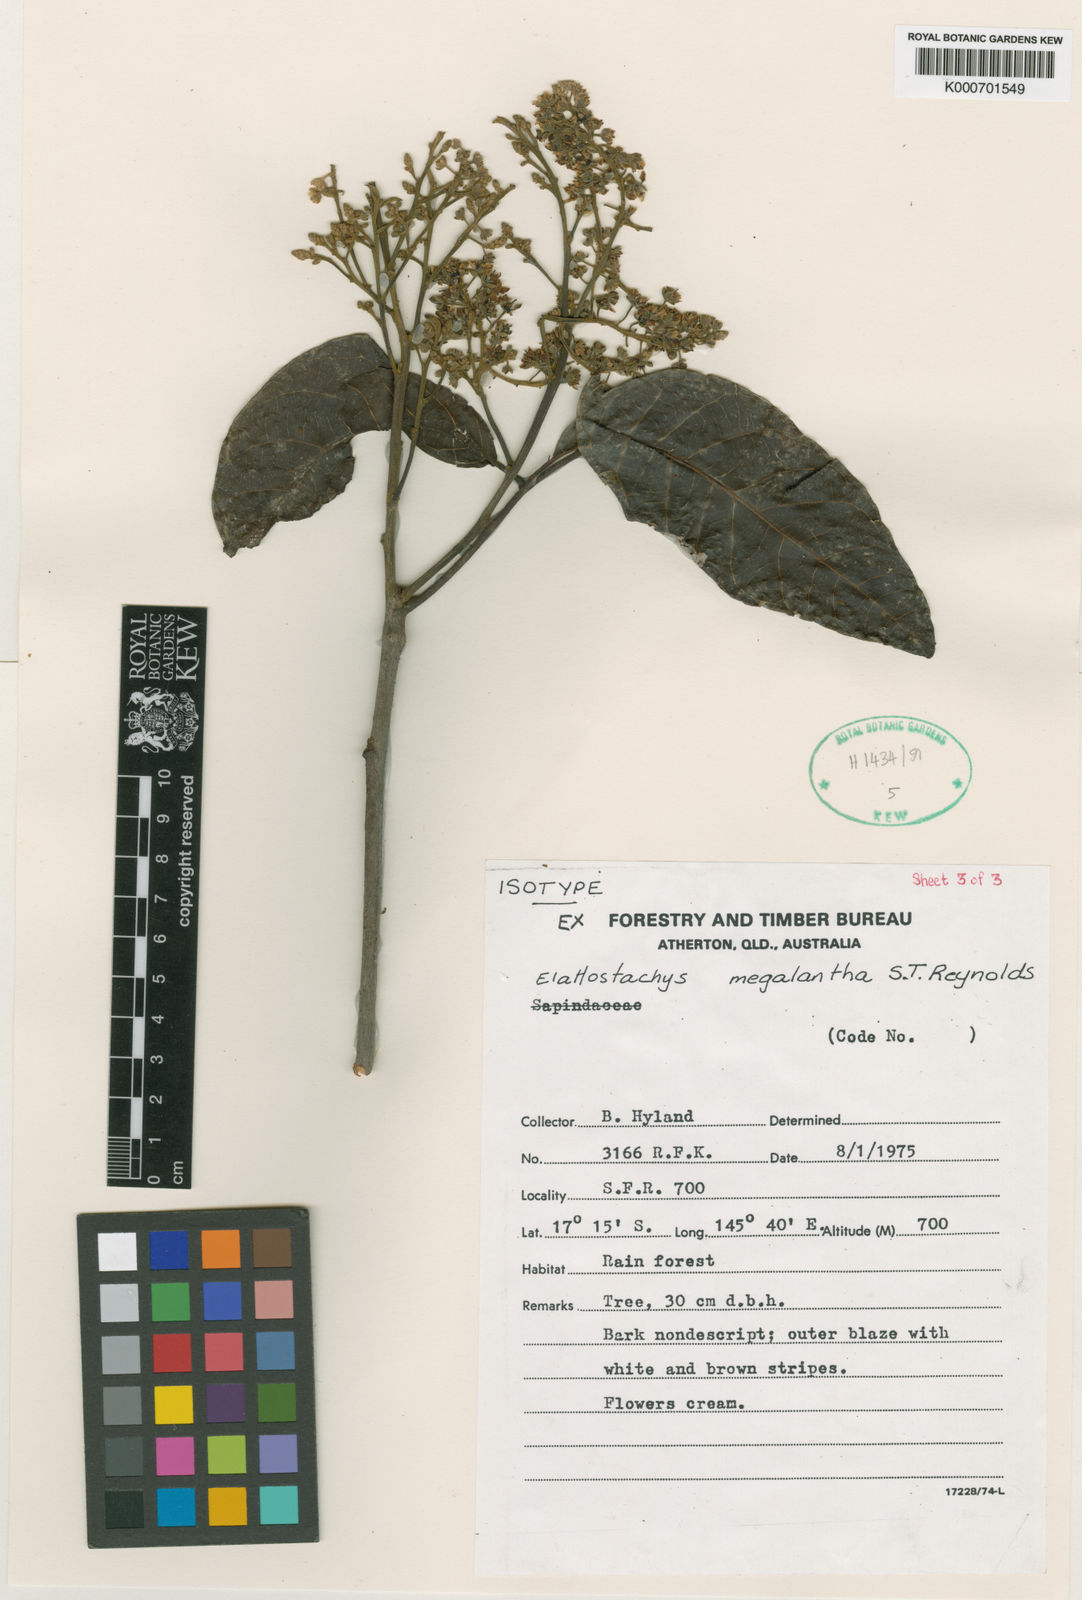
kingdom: Plantae
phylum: Tracheophyta
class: Magnoliopsida
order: Sapindales
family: Sapindaceae
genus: Elattostachys
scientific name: Elattostachys megalantha
